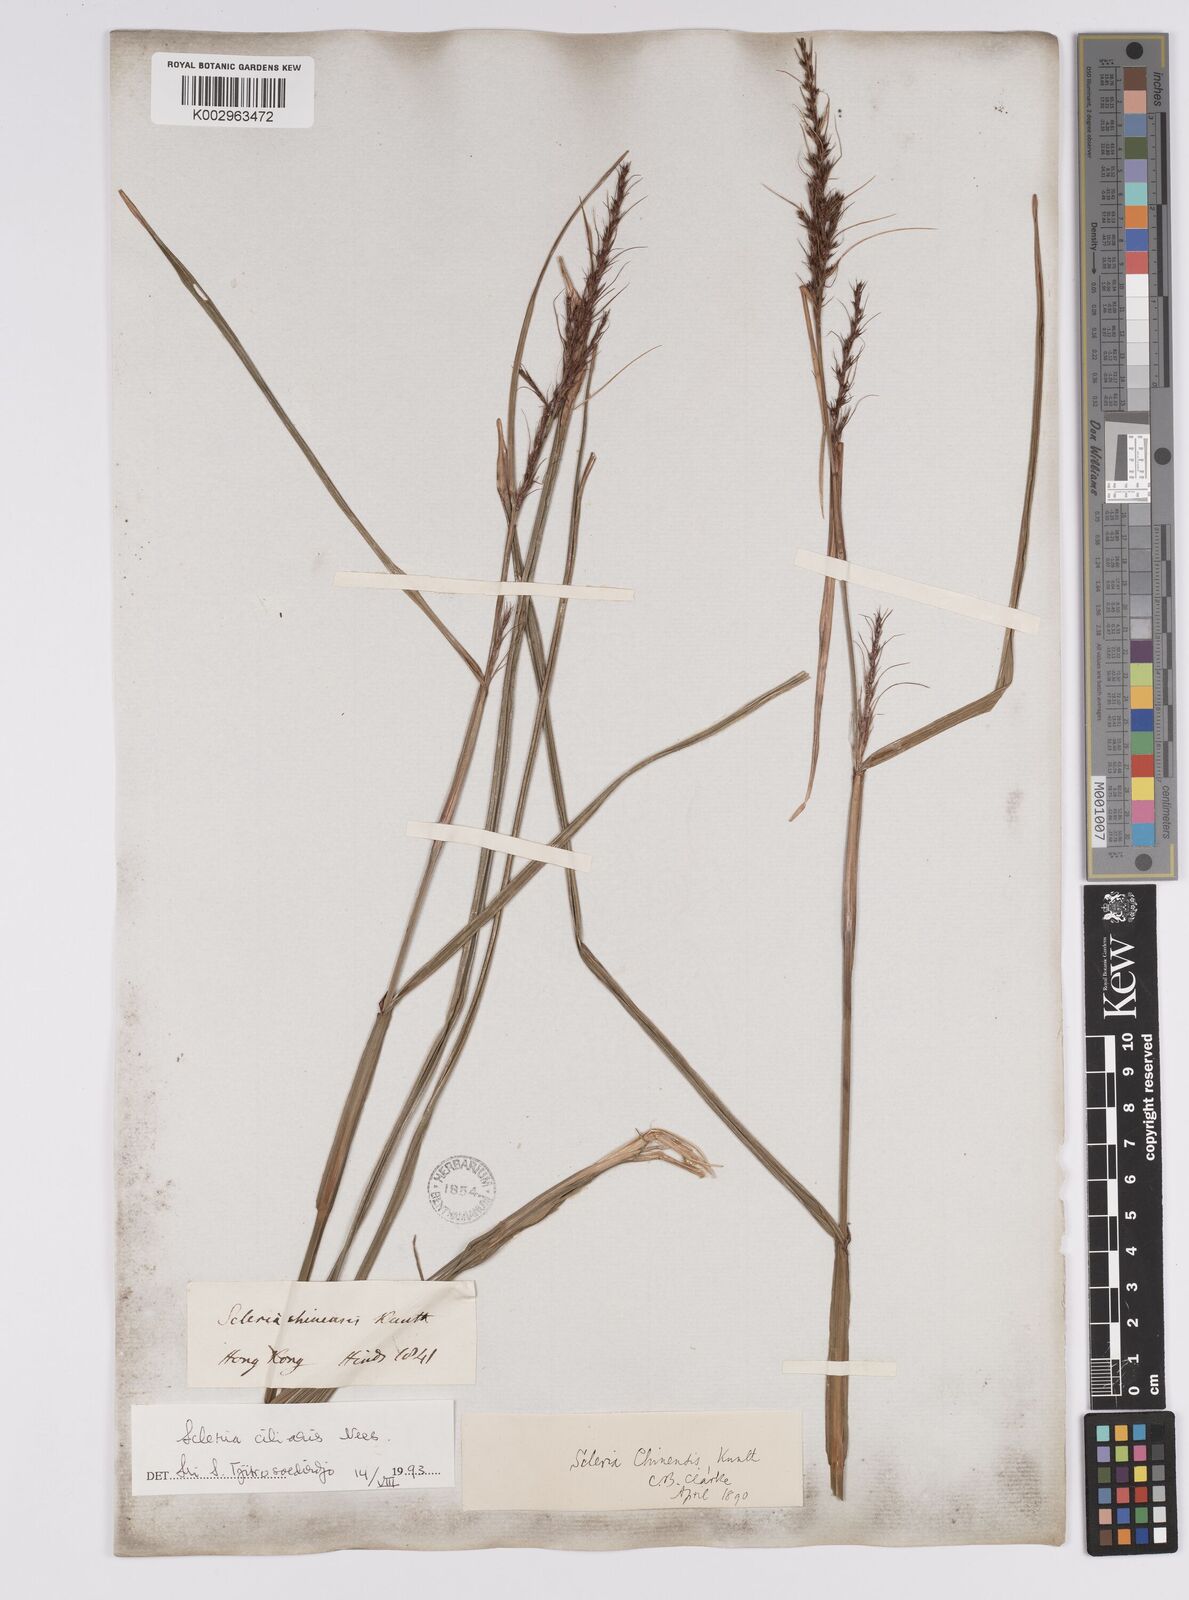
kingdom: Plantae
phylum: Tracheophyta
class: Liliopsida
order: Poales
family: Cyperaceae
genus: Scleria
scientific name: Scleria ciliaris
